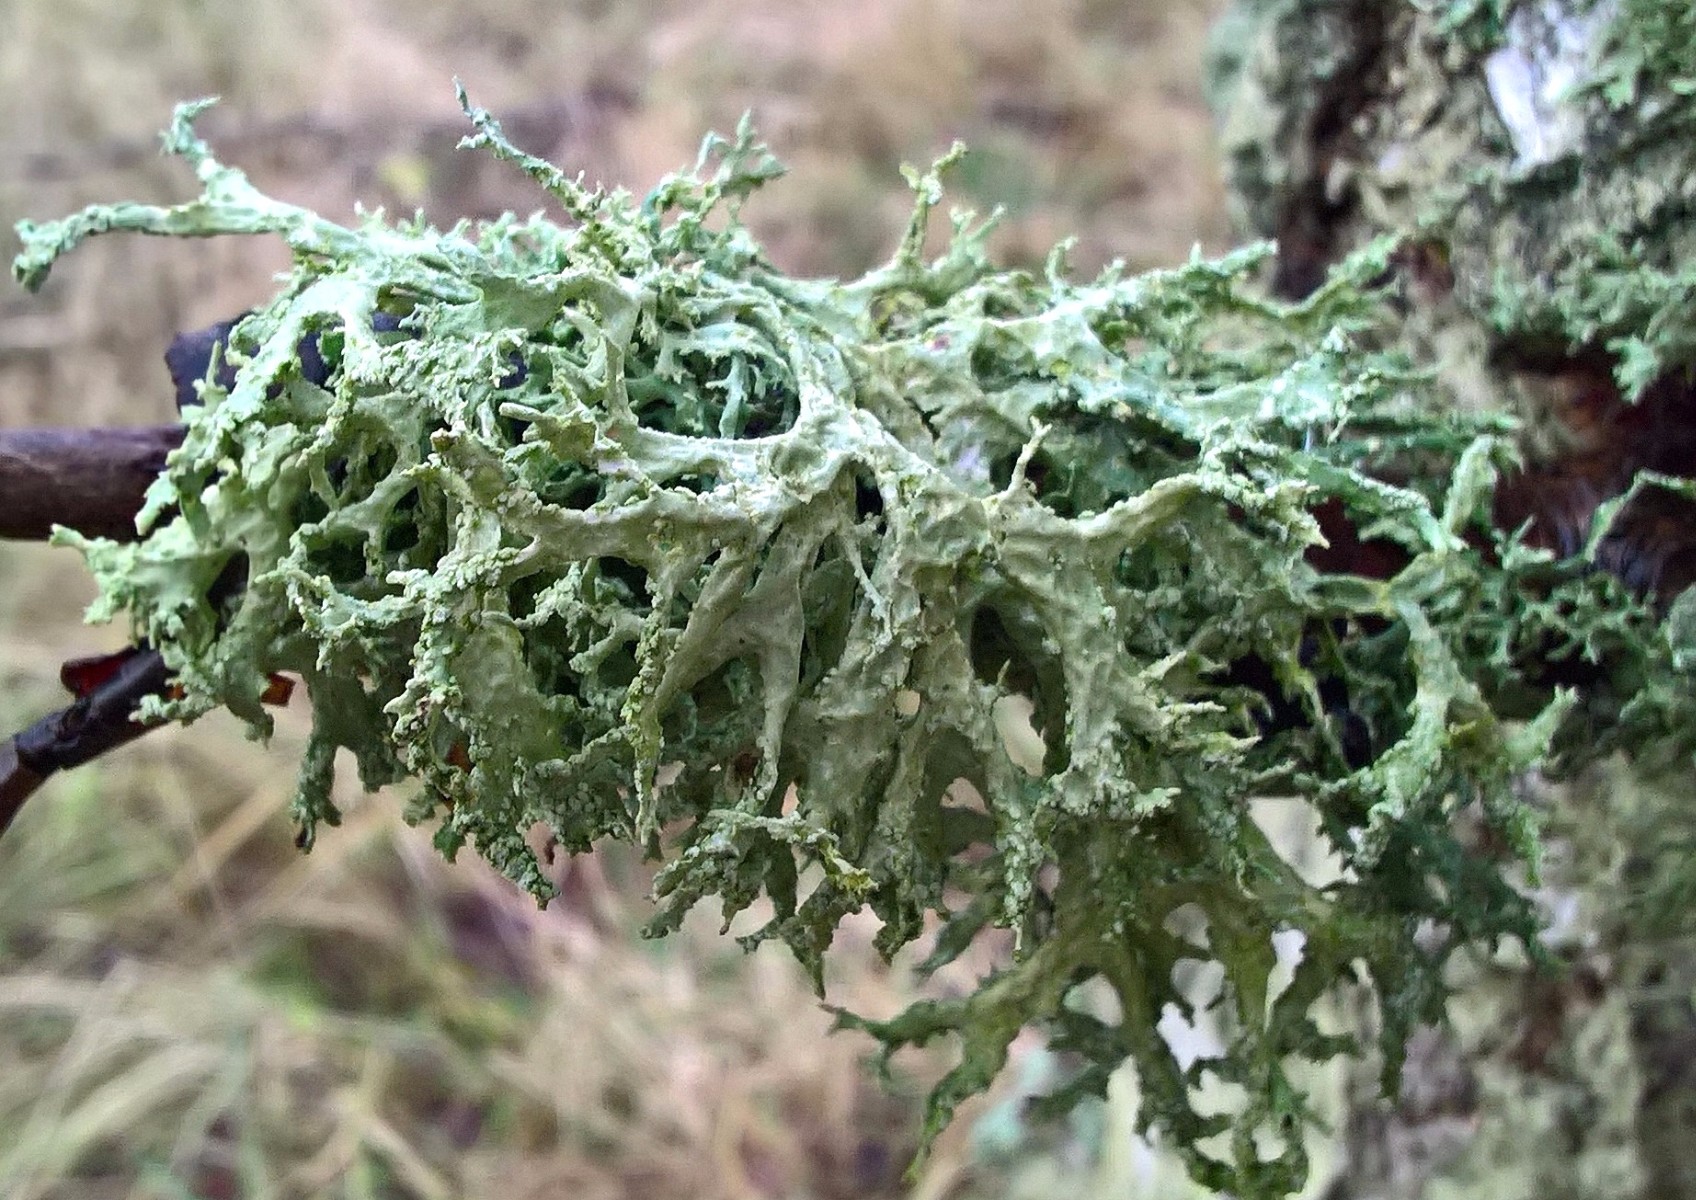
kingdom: Fungi
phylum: Ascomycota
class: Lecanoromycetes
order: Lecanorales
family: Parmeliaceae
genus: Evernia
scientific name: Evernia prunastri
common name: almindelig slåenlav
